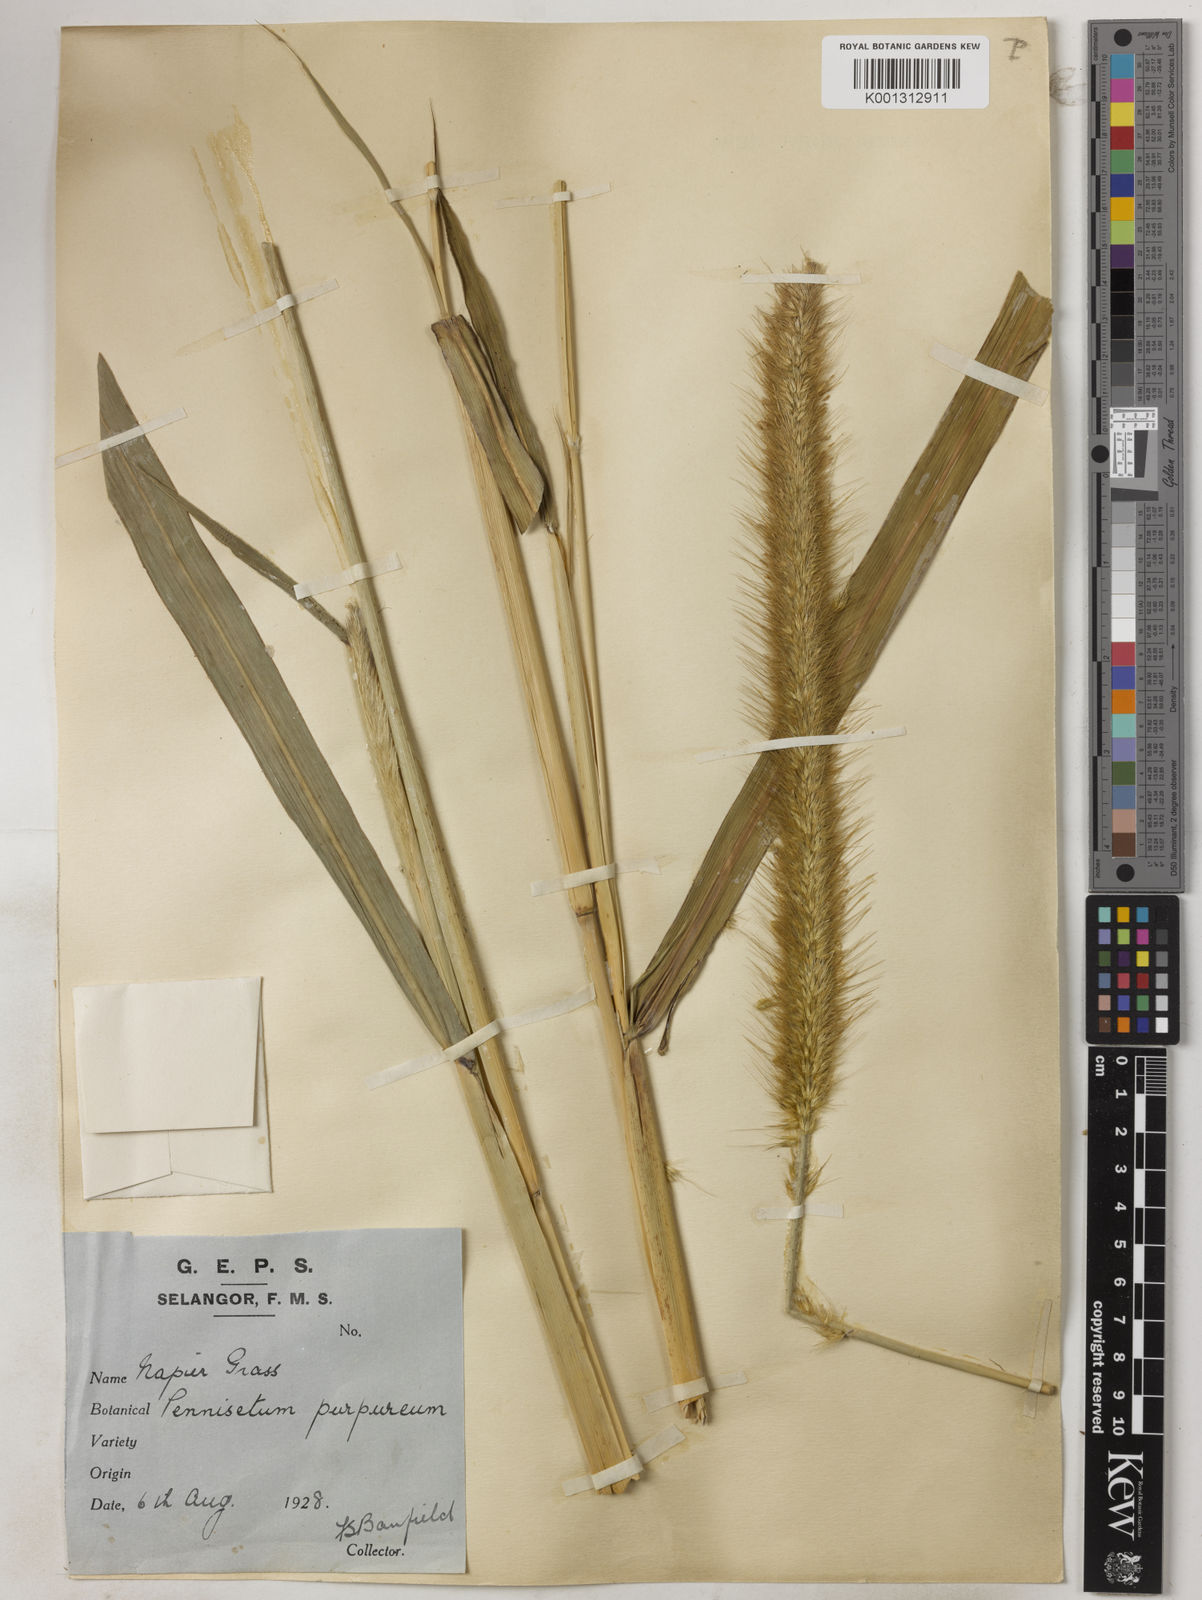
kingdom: Plantae
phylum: Tracheophyta
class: Liliopsida
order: Poales
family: Poaceae
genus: Cenchrus
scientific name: Cenchrus purpureus
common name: Elephant grass
